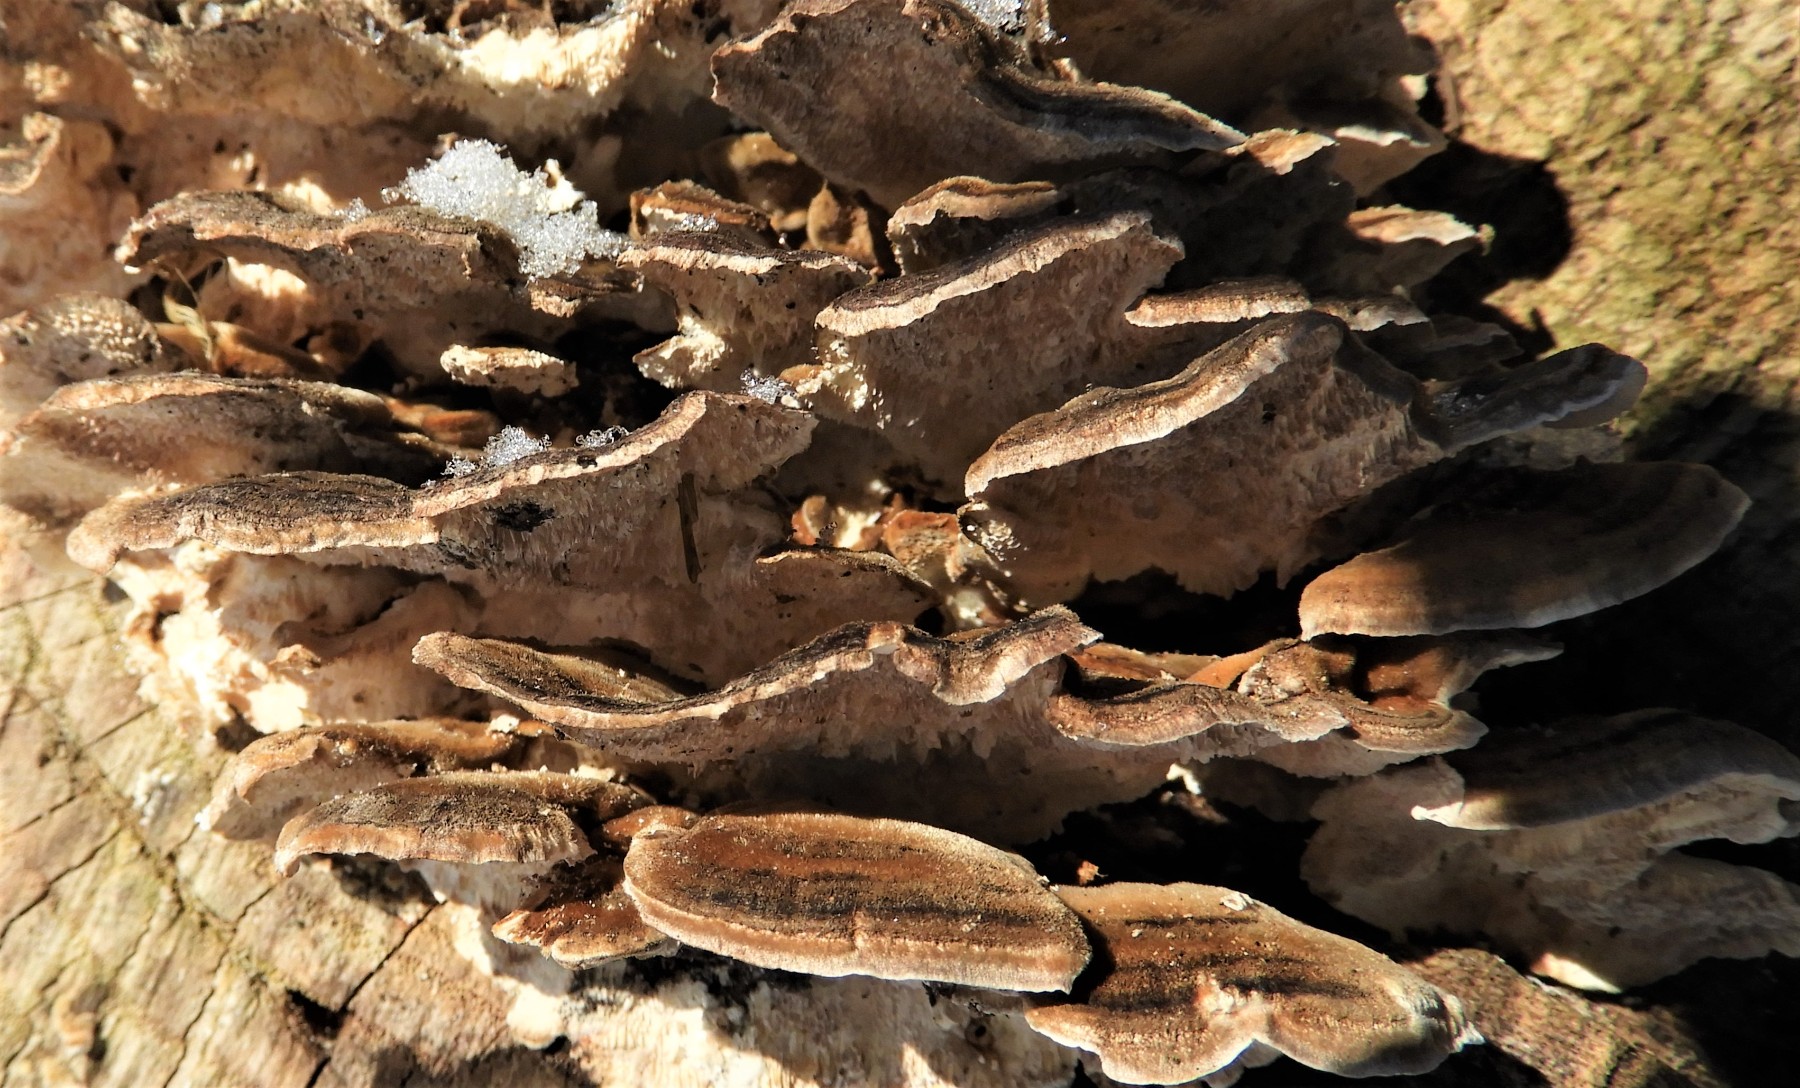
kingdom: Fungi
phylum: Basidiomycota
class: Agaricomycetes
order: Polyporales
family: Polyporaceae
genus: Trametes
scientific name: Trametes versicolor
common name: broget læderporesvamp
